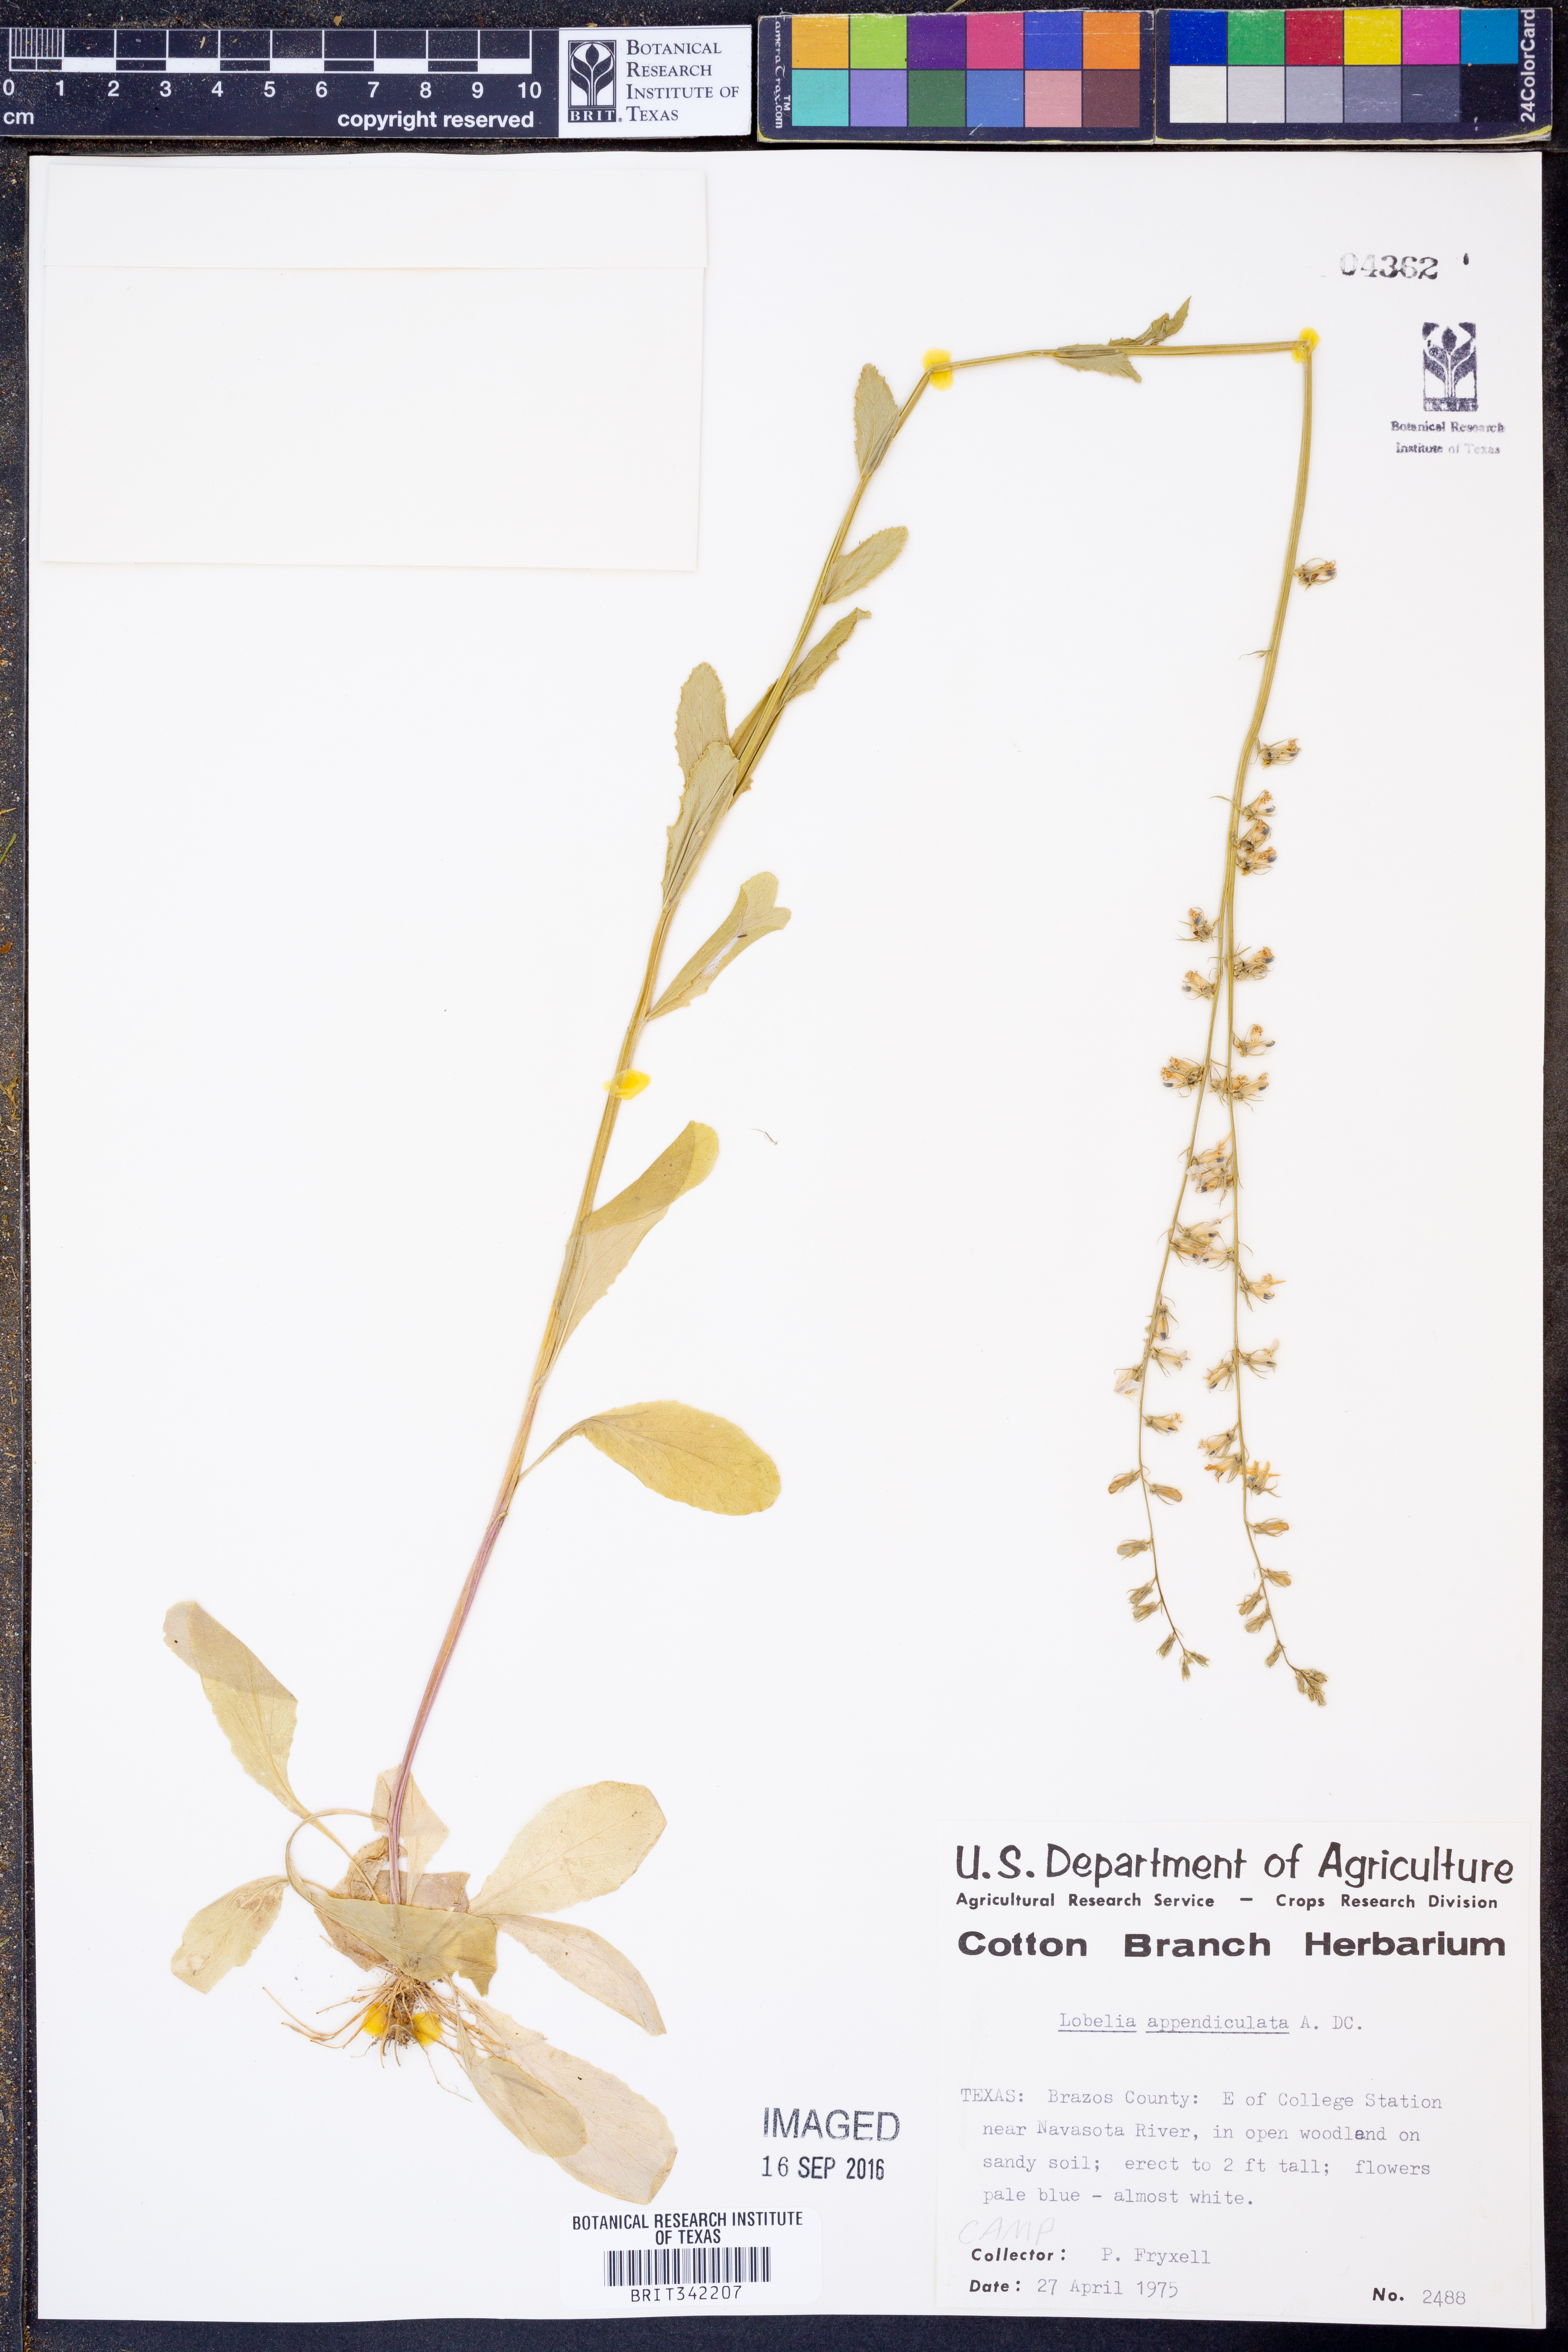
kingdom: Plantae
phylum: Tracheophyta
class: Magnoliopsida
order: Asterales
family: Campanulaceae
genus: Lobelia
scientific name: Lobelia appendiculata
